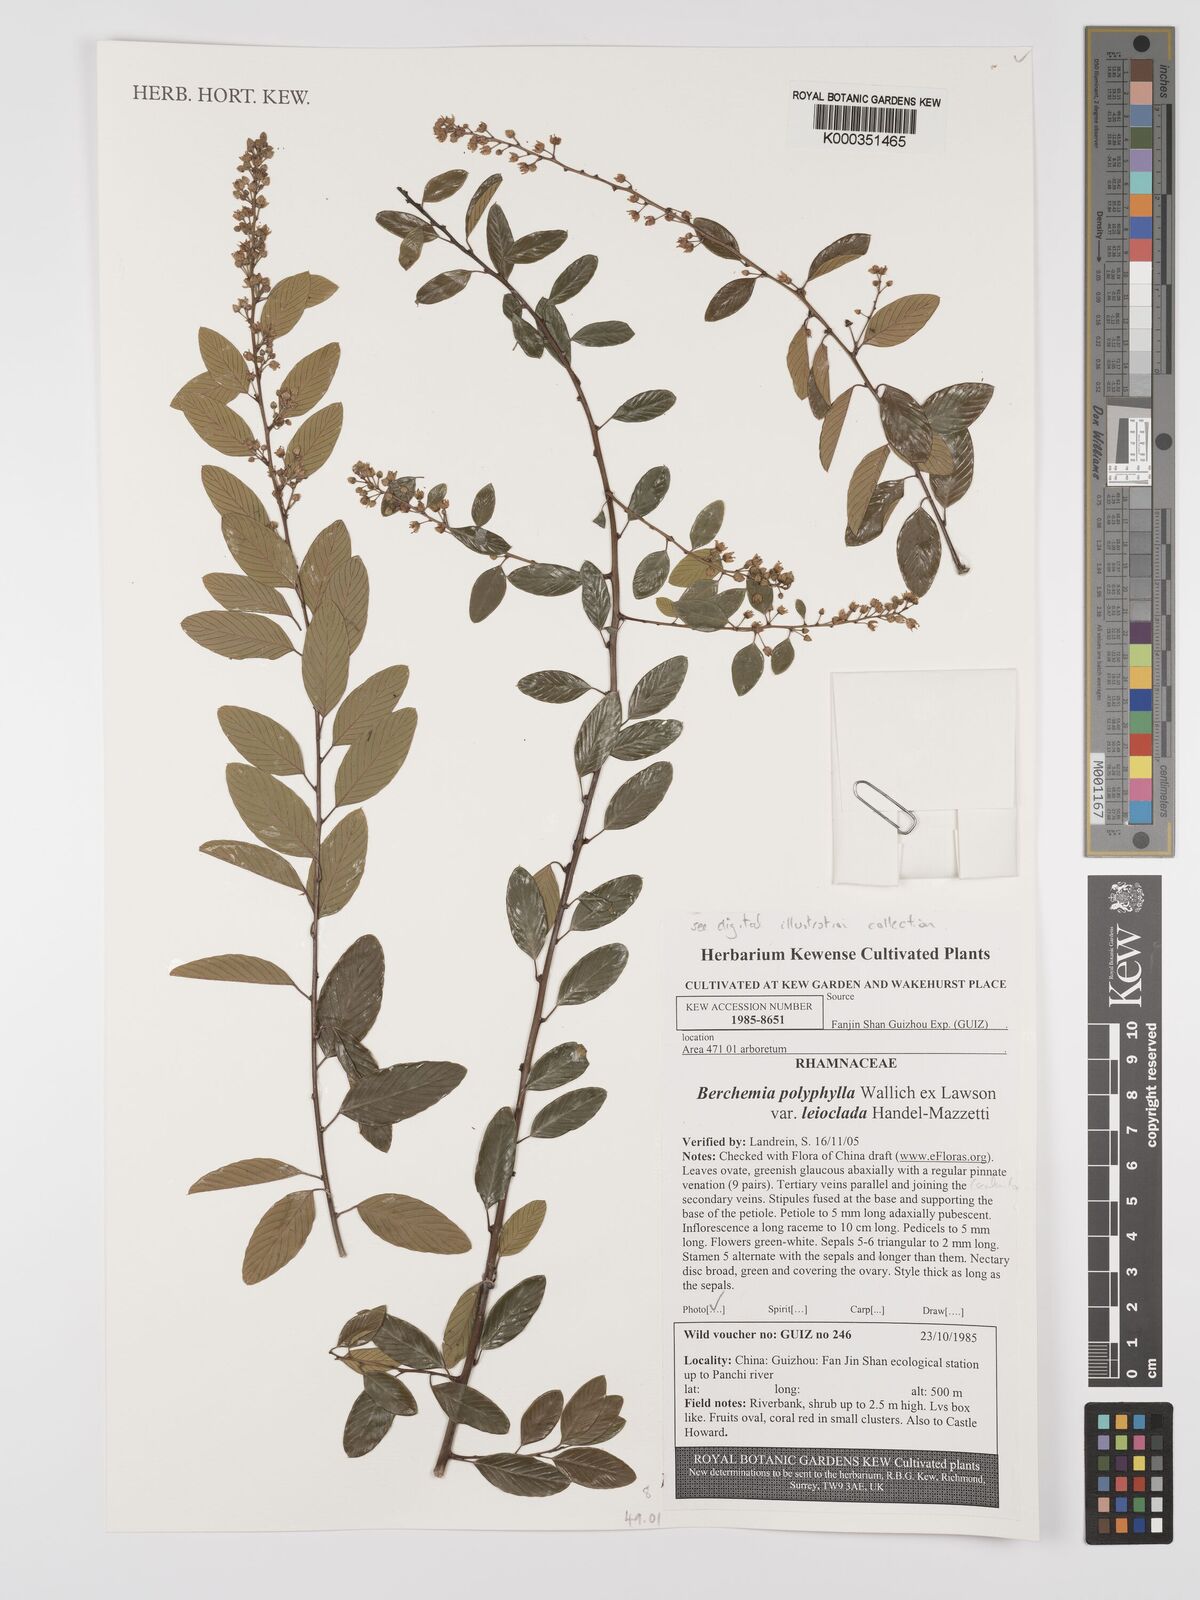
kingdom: Plantae
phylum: Tracheophyta
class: Magnoliopsida
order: Rosales
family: Rhamnaceae
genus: Berchemia
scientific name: Berchemia polyphylla
